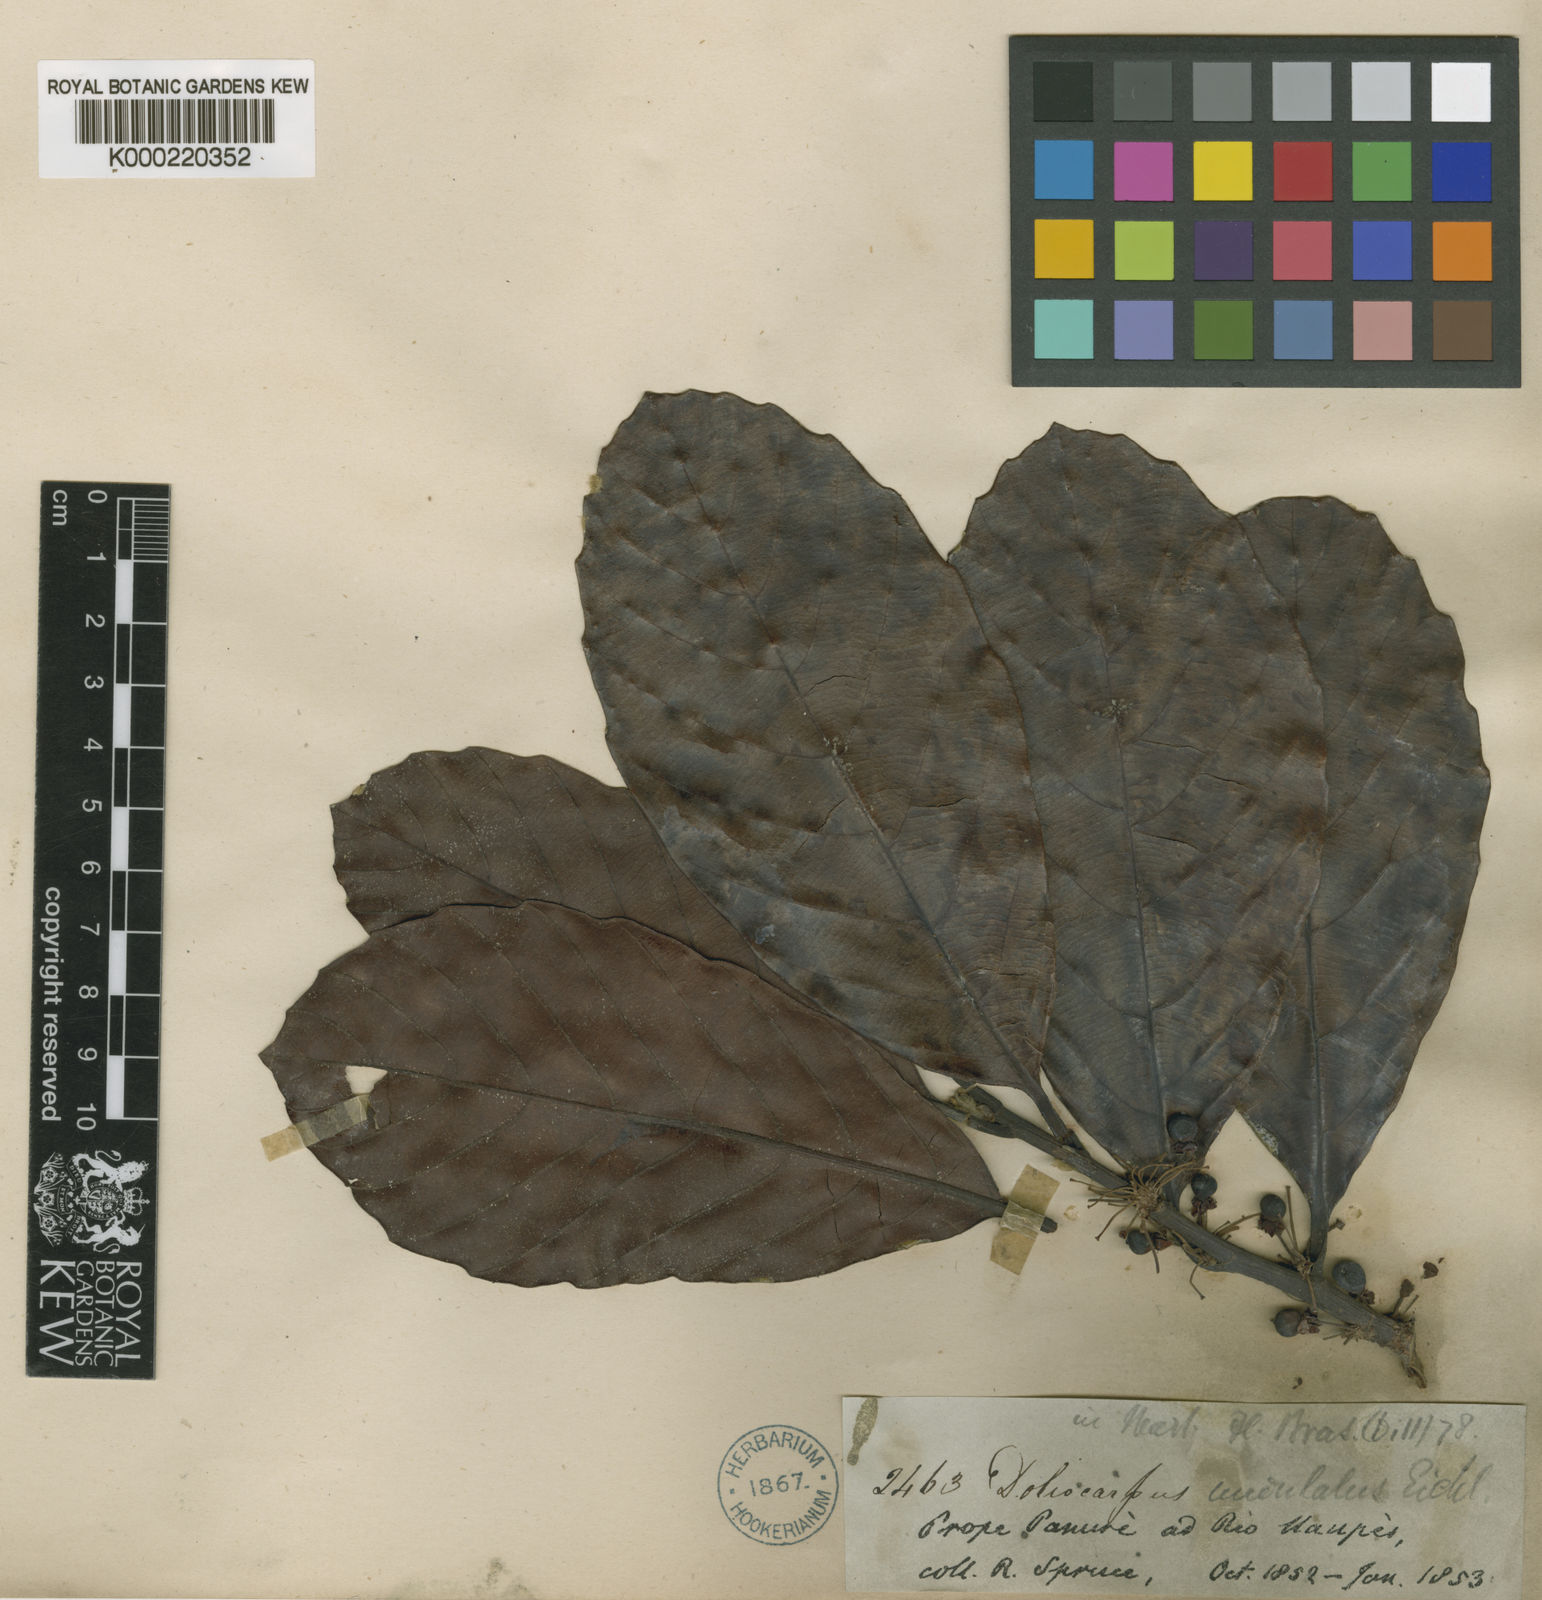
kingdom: Plantae
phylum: Tracheophyta
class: Magnoliopsida
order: Dilleniales
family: Dilleniaceae
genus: Doliocarpus
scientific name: Doliocarpus dentatus
